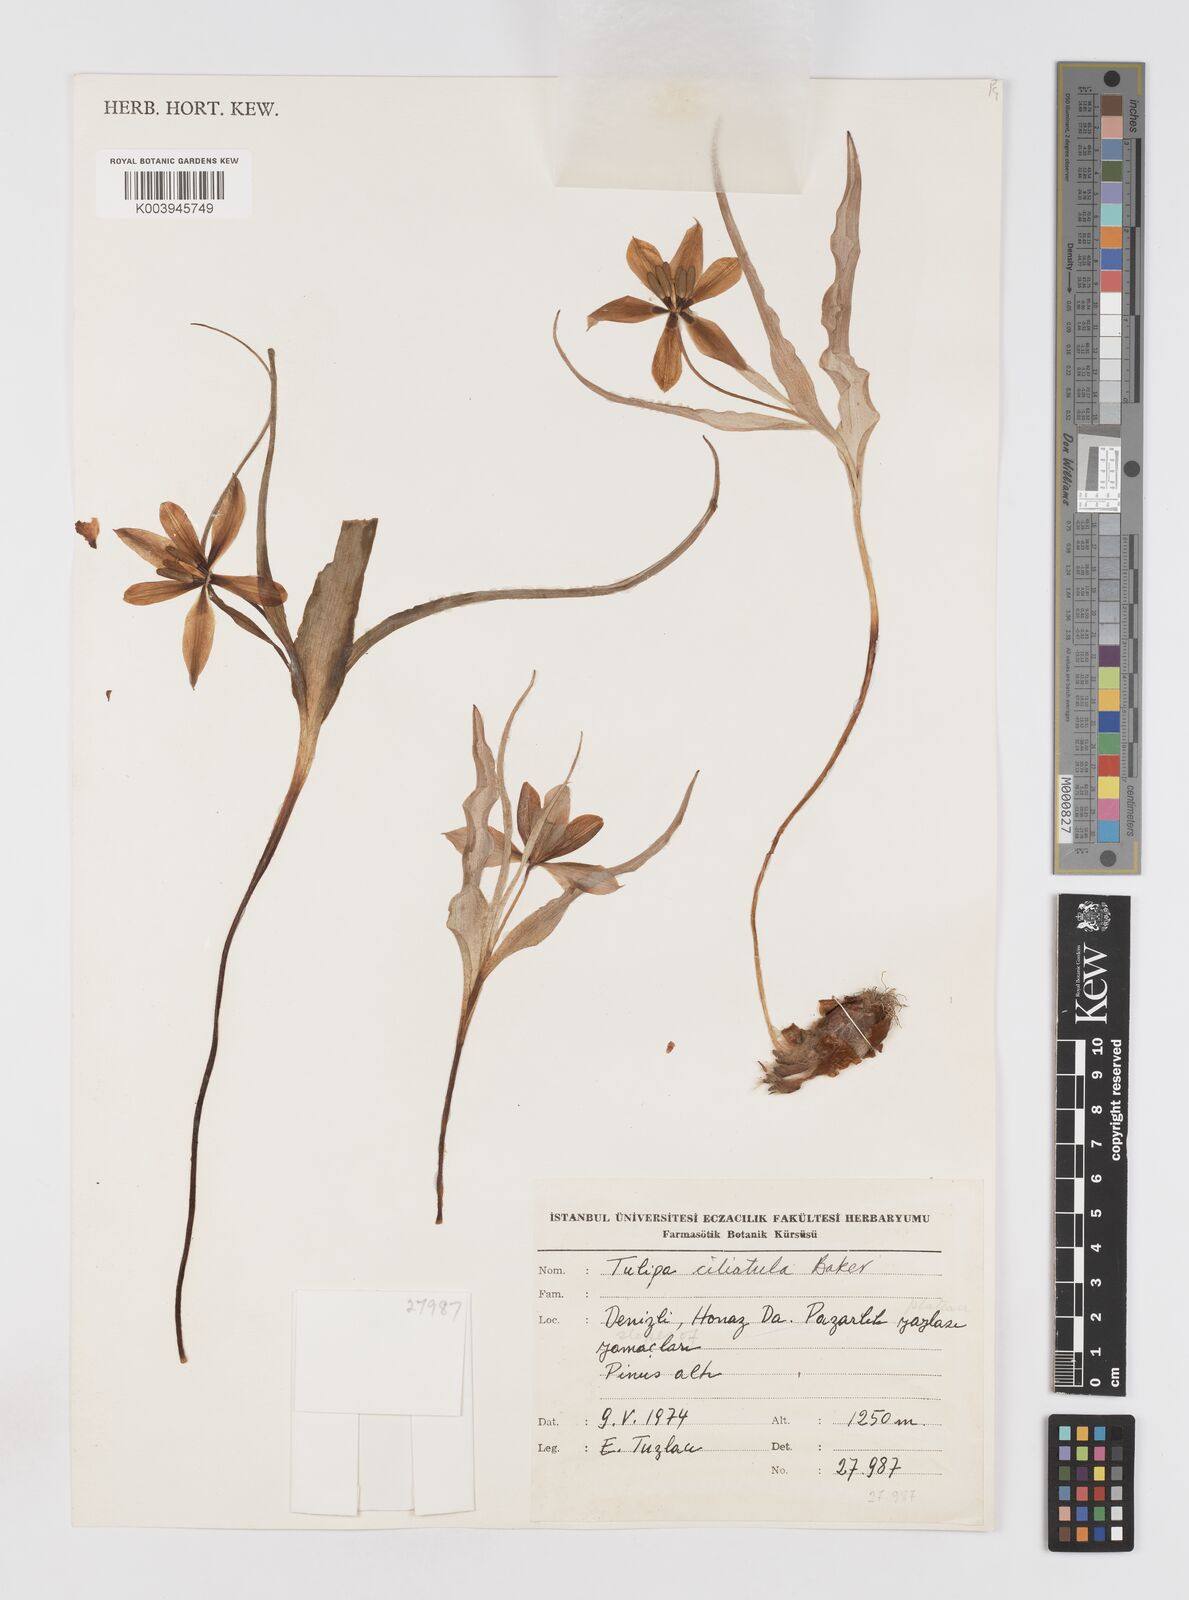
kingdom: Plantae
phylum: Tracheophyta
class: Liliopsida
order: Liliales
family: Liliaceae
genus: Tulipa
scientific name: Tulipa armena
